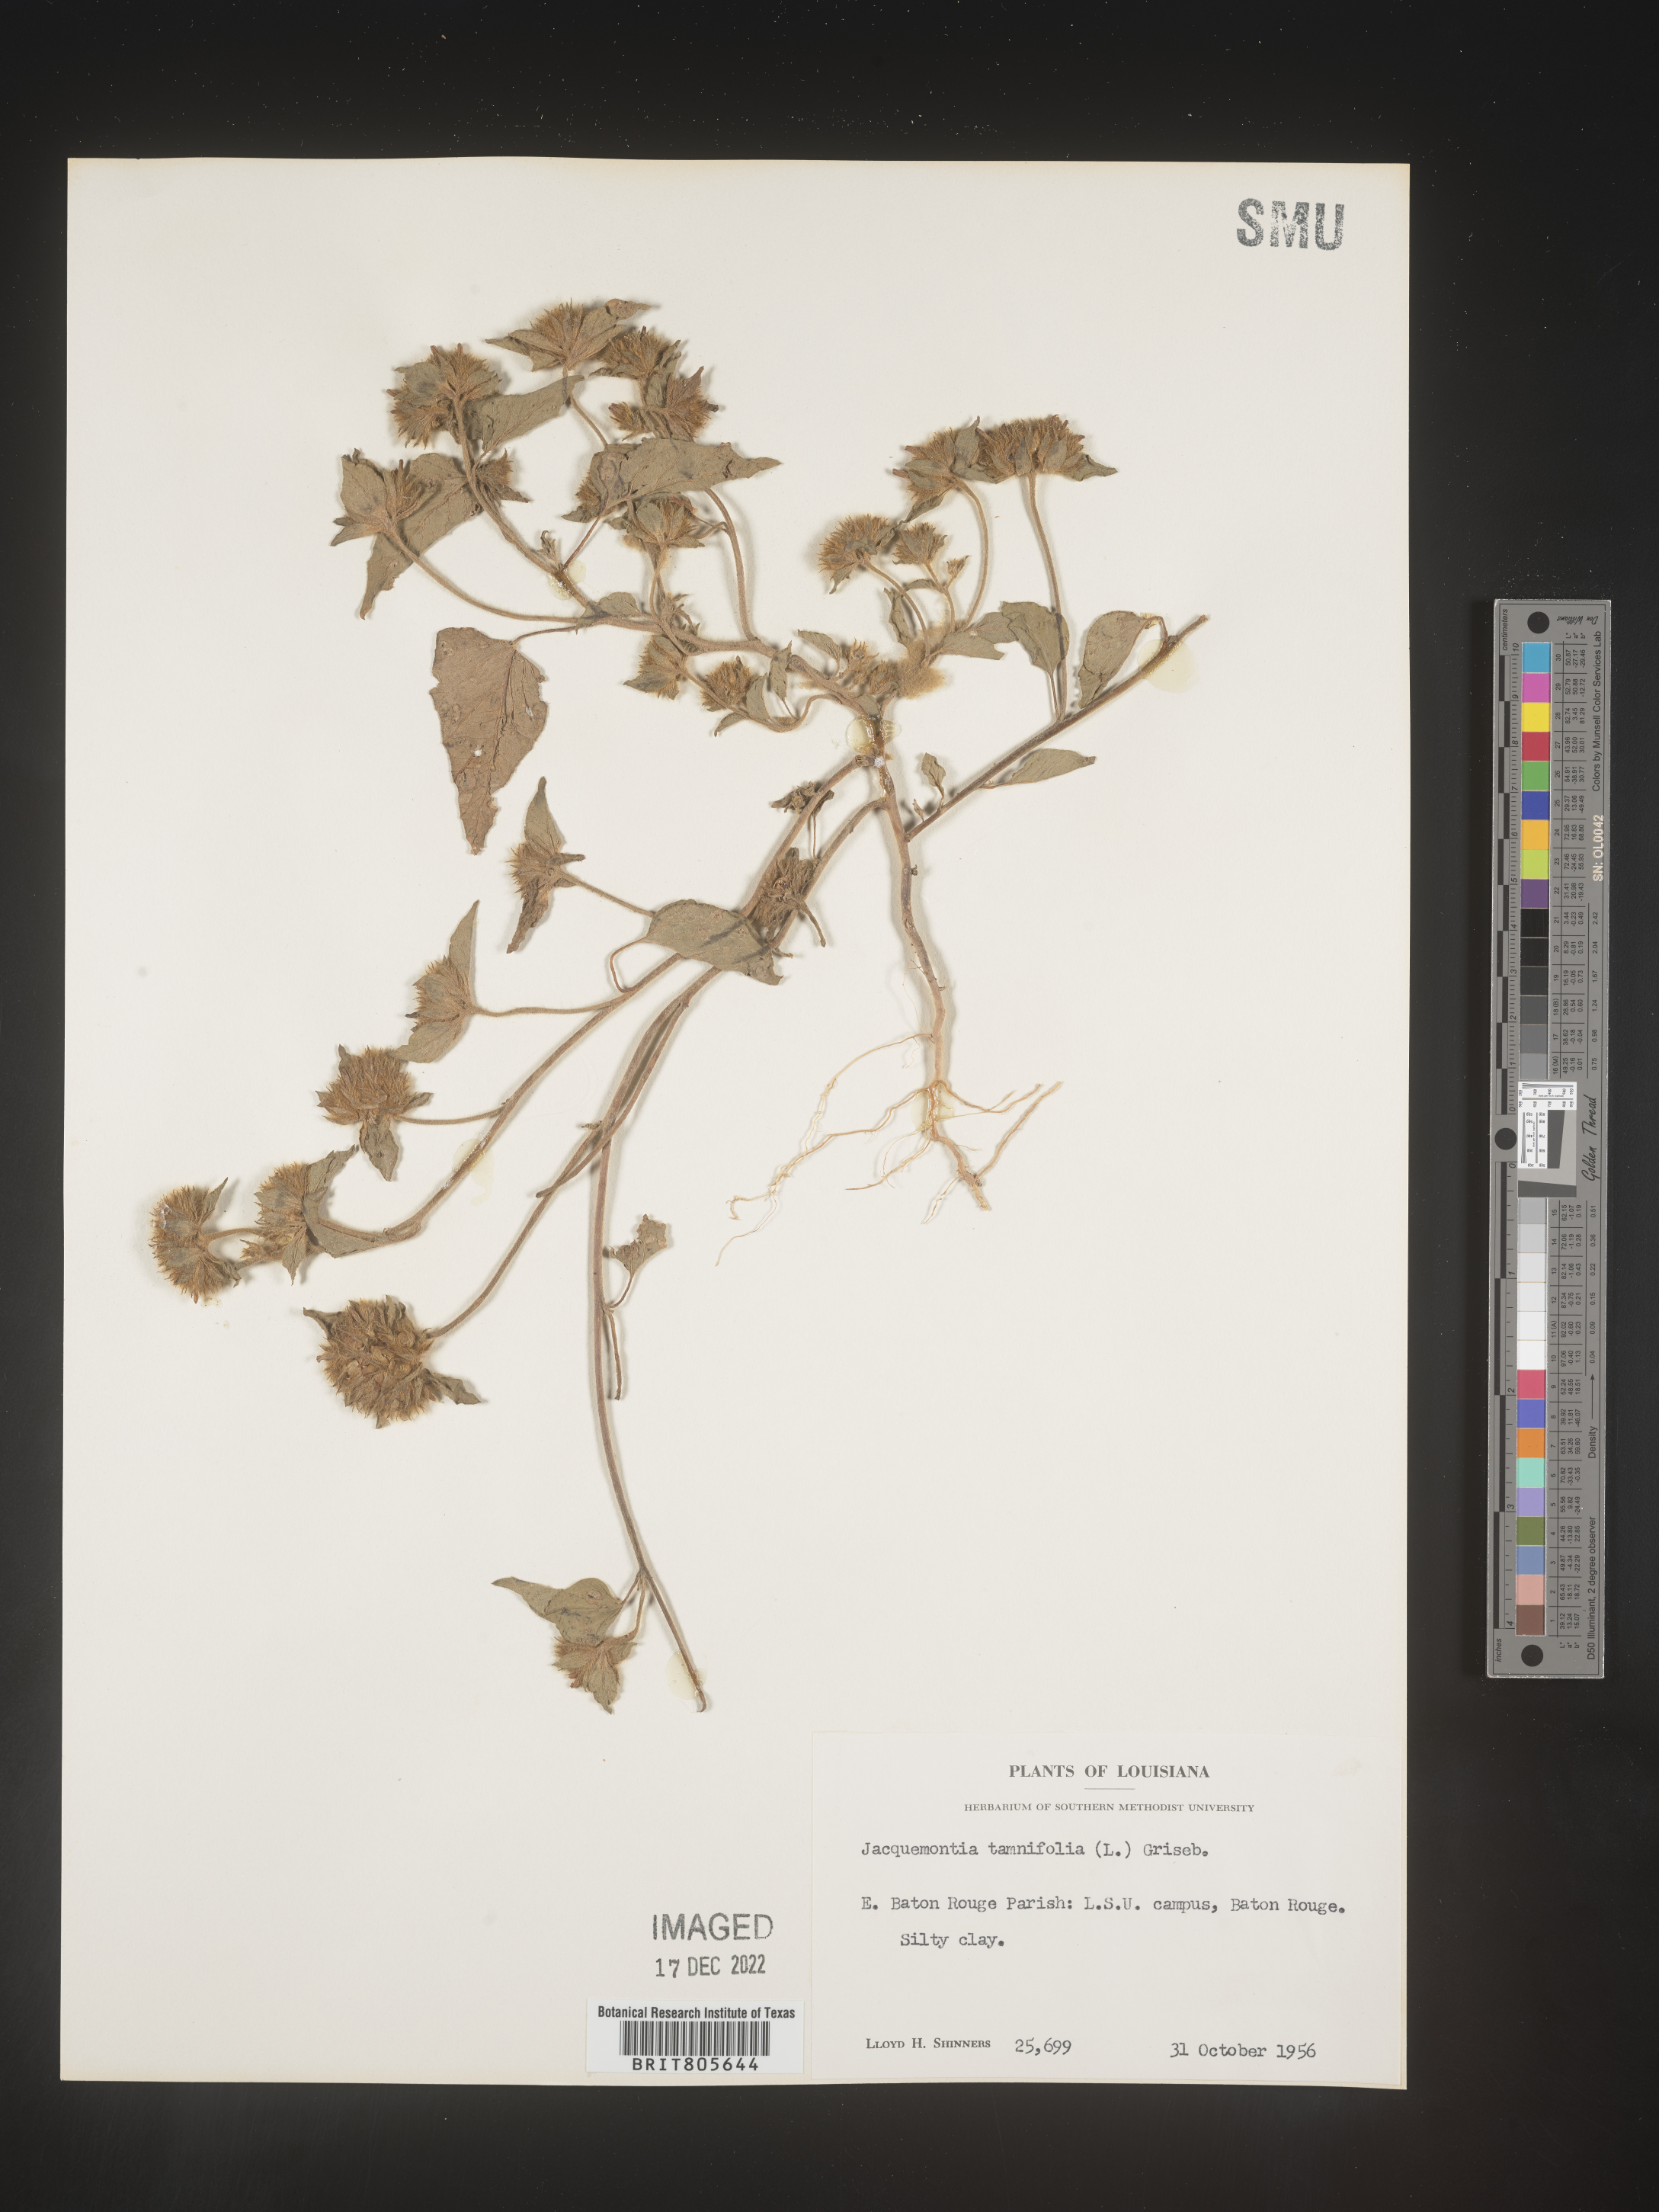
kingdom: Plantae
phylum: Tracheophyta
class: Magnoliopsida
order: Solanales
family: Convolvulaceae
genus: Jacquemontia
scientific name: Jacquemontia tamnifolia
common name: Hairy clustervine
